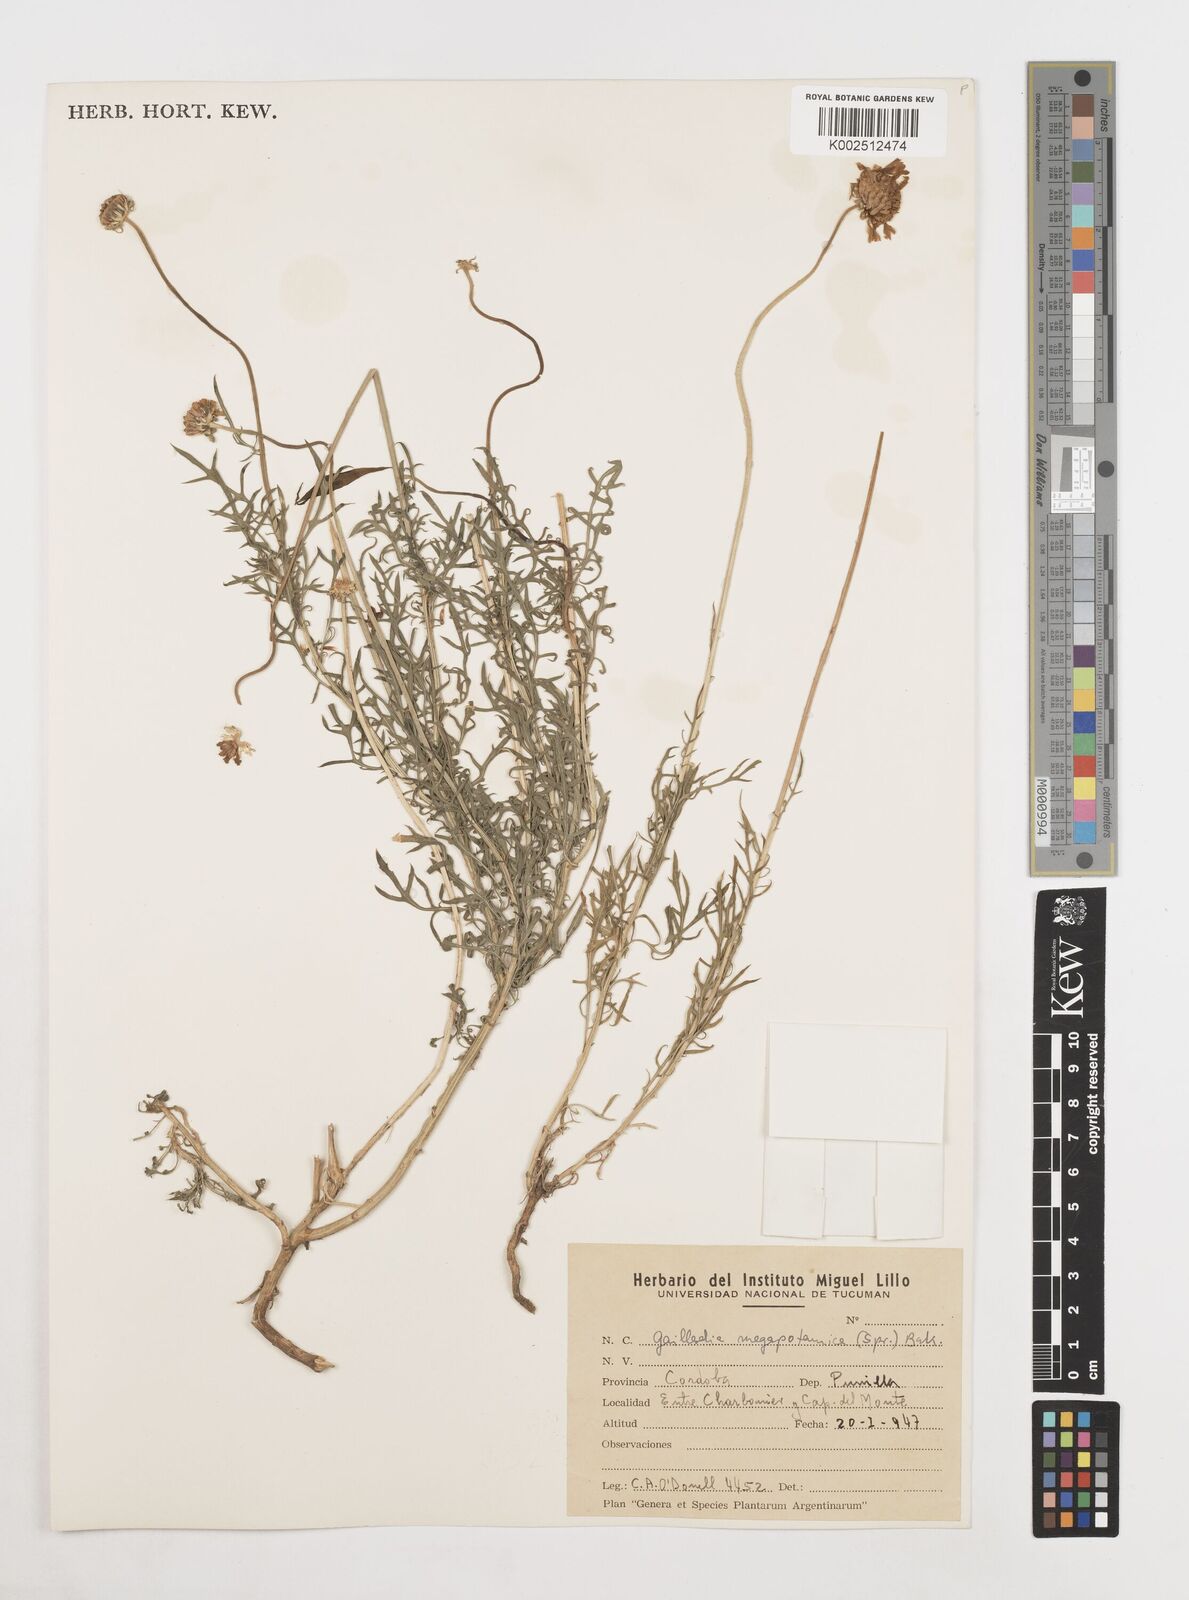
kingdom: Plantae
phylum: Tracheophyta
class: Magnoliopsida
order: Asterales
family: Asteraceae
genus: Gaillardia
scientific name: Gaillardia megapotamica
